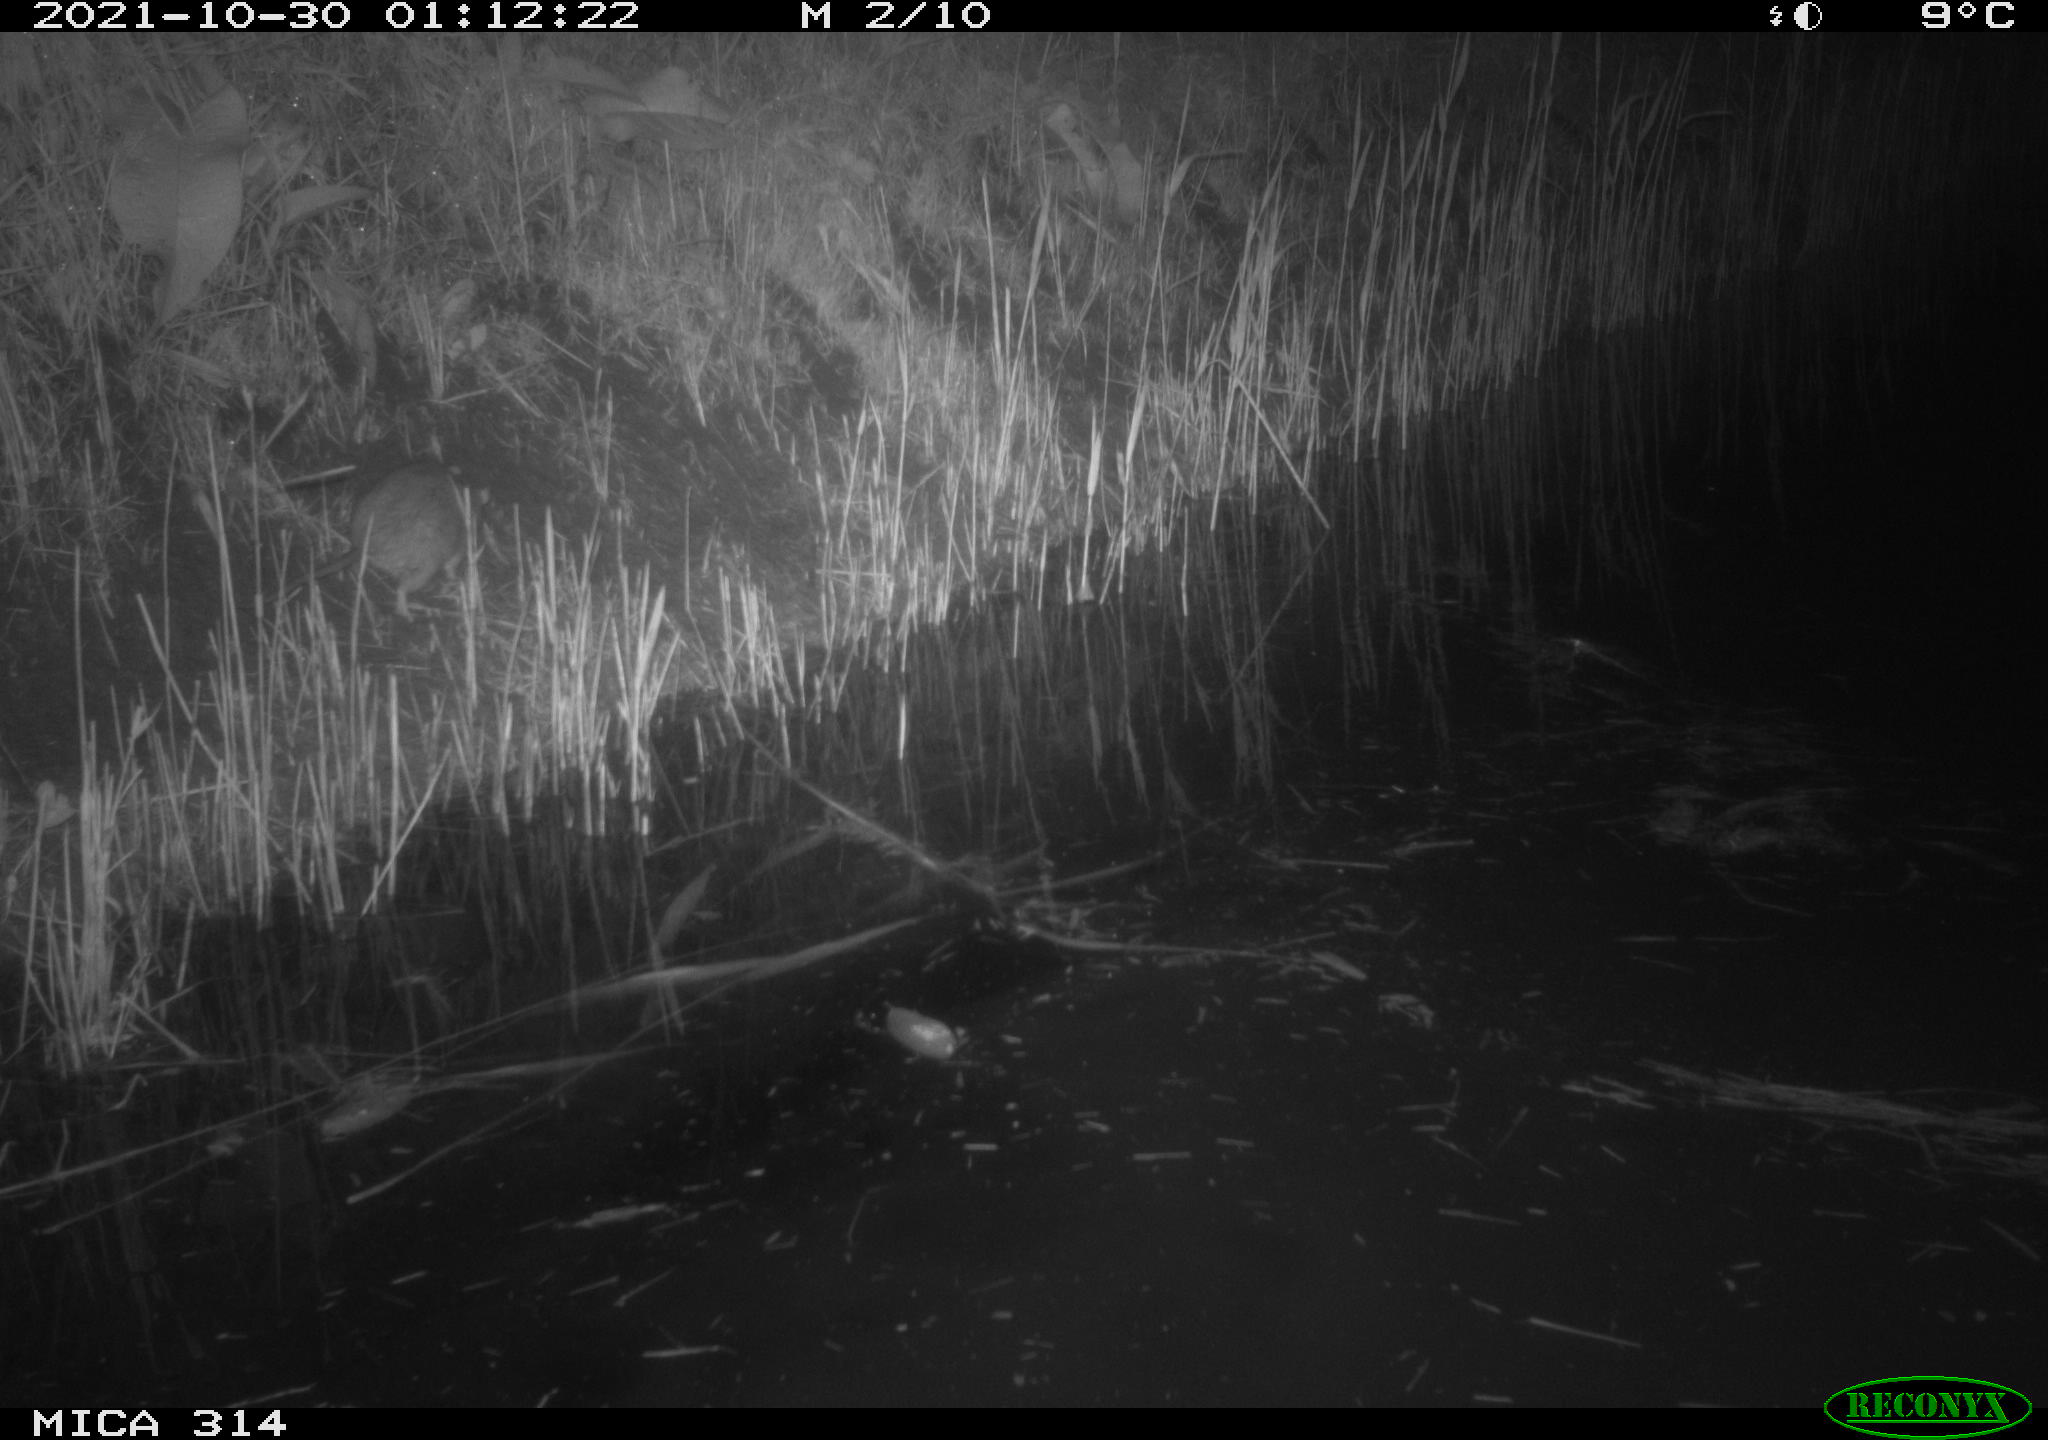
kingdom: Animalia
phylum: Chordata
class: Mammalia
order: Rodentia
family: Muridae
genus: Rattus
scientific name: Rattus norvegicus
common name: Brown rat
